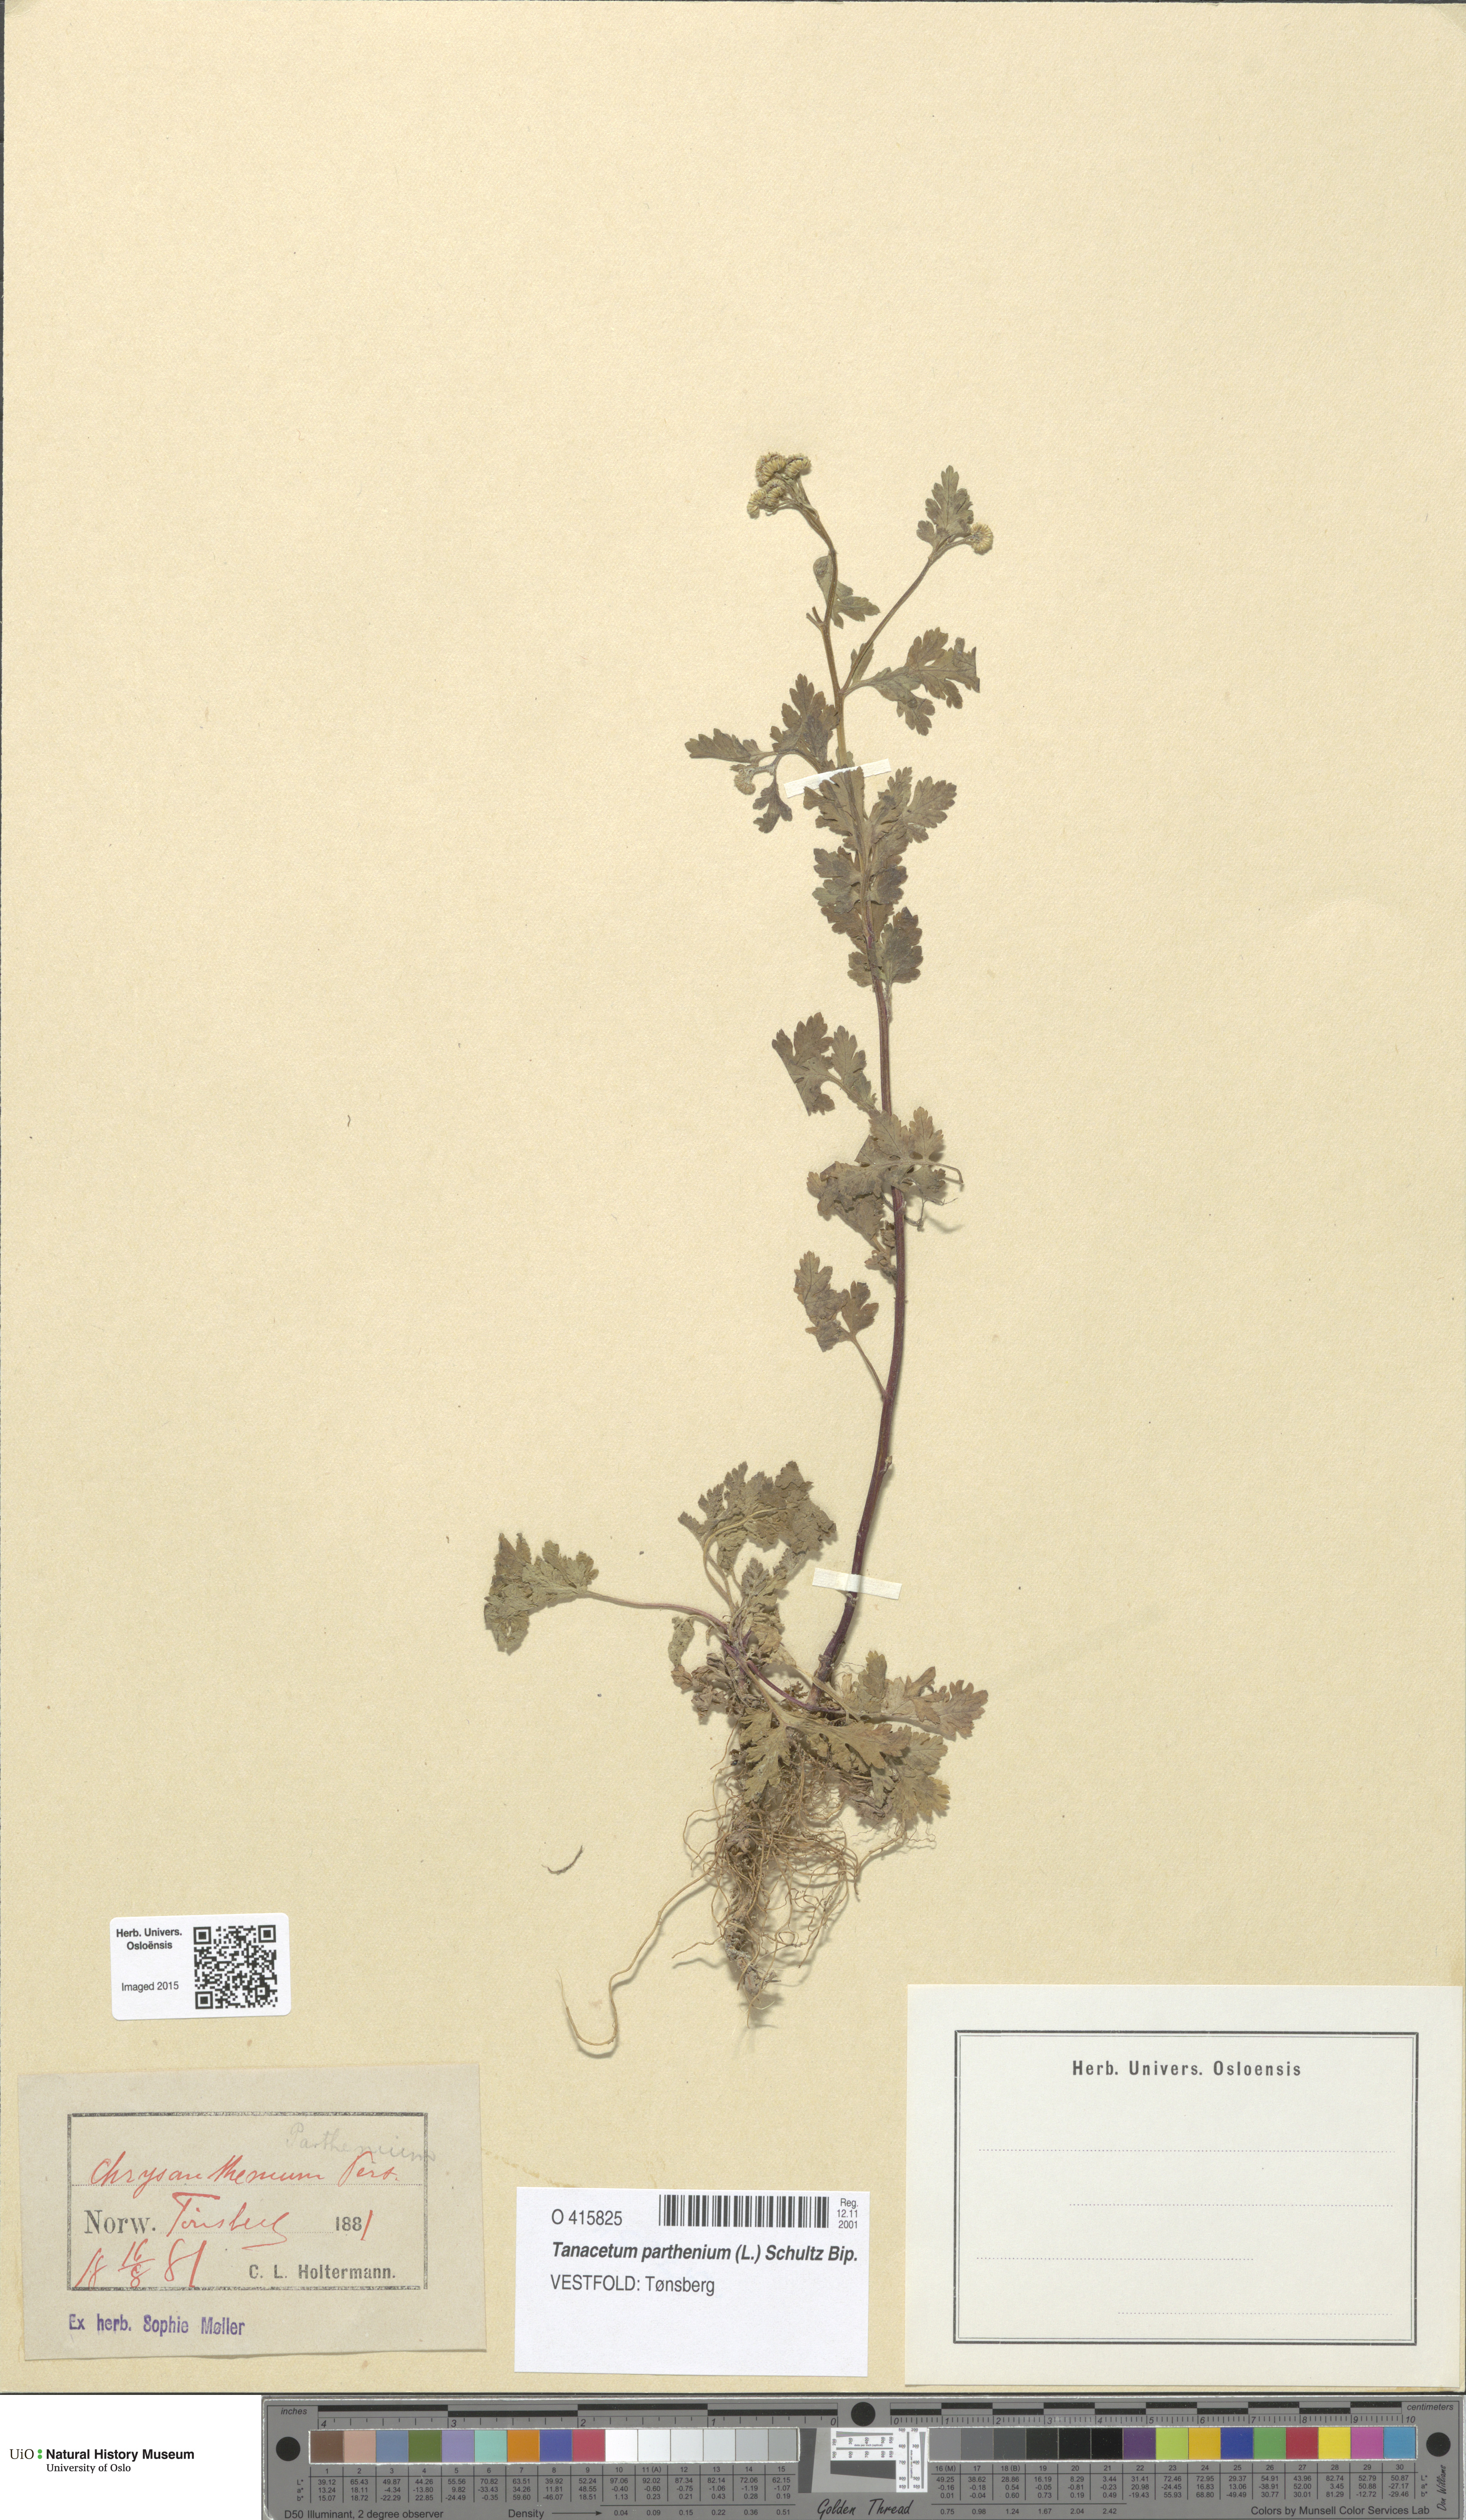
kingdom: Plantae
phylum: Tracheophyta
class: Magnoliopsida
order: Asterales
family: Asteraceae
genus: Tanacetum
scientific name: Tanacetum parthenium
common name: Feverfew
